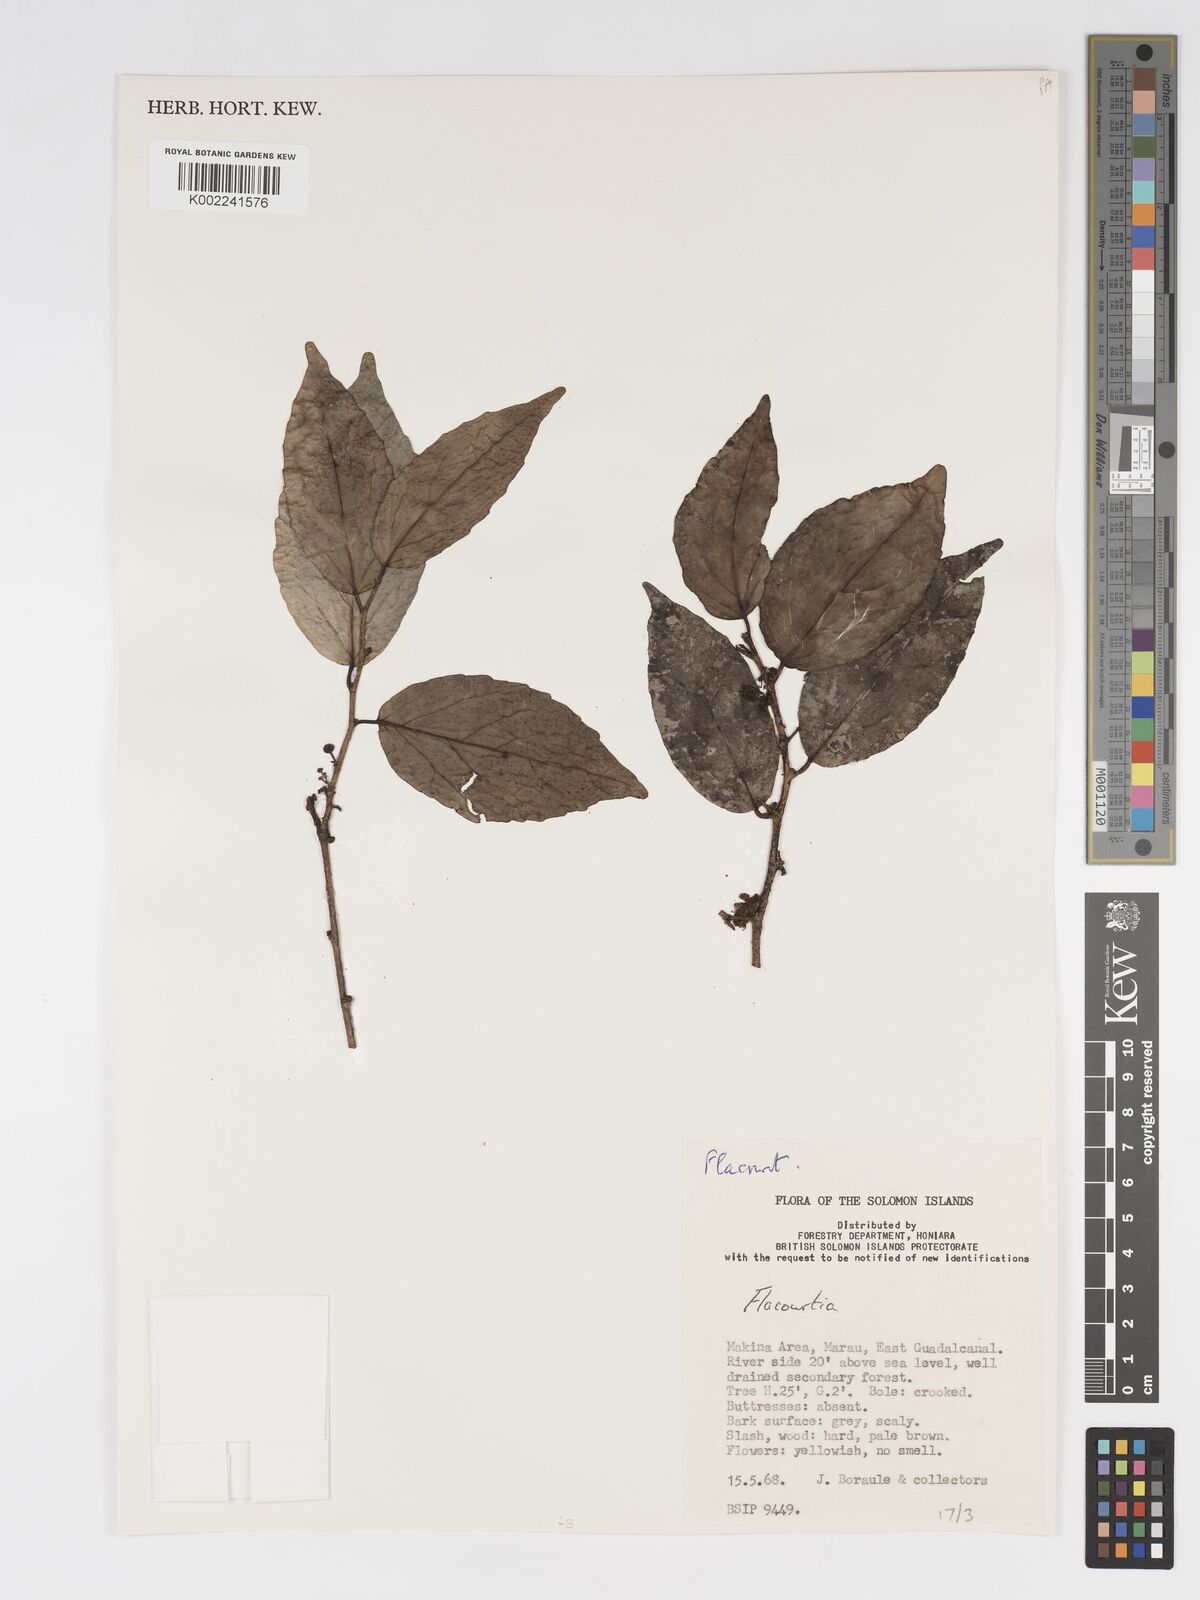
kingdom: Plantae
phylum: Tracheophyta
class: Magnoliopsida
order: Malpighiales
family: Salicaceae
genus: Flacourtia
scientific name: Flacourtia
